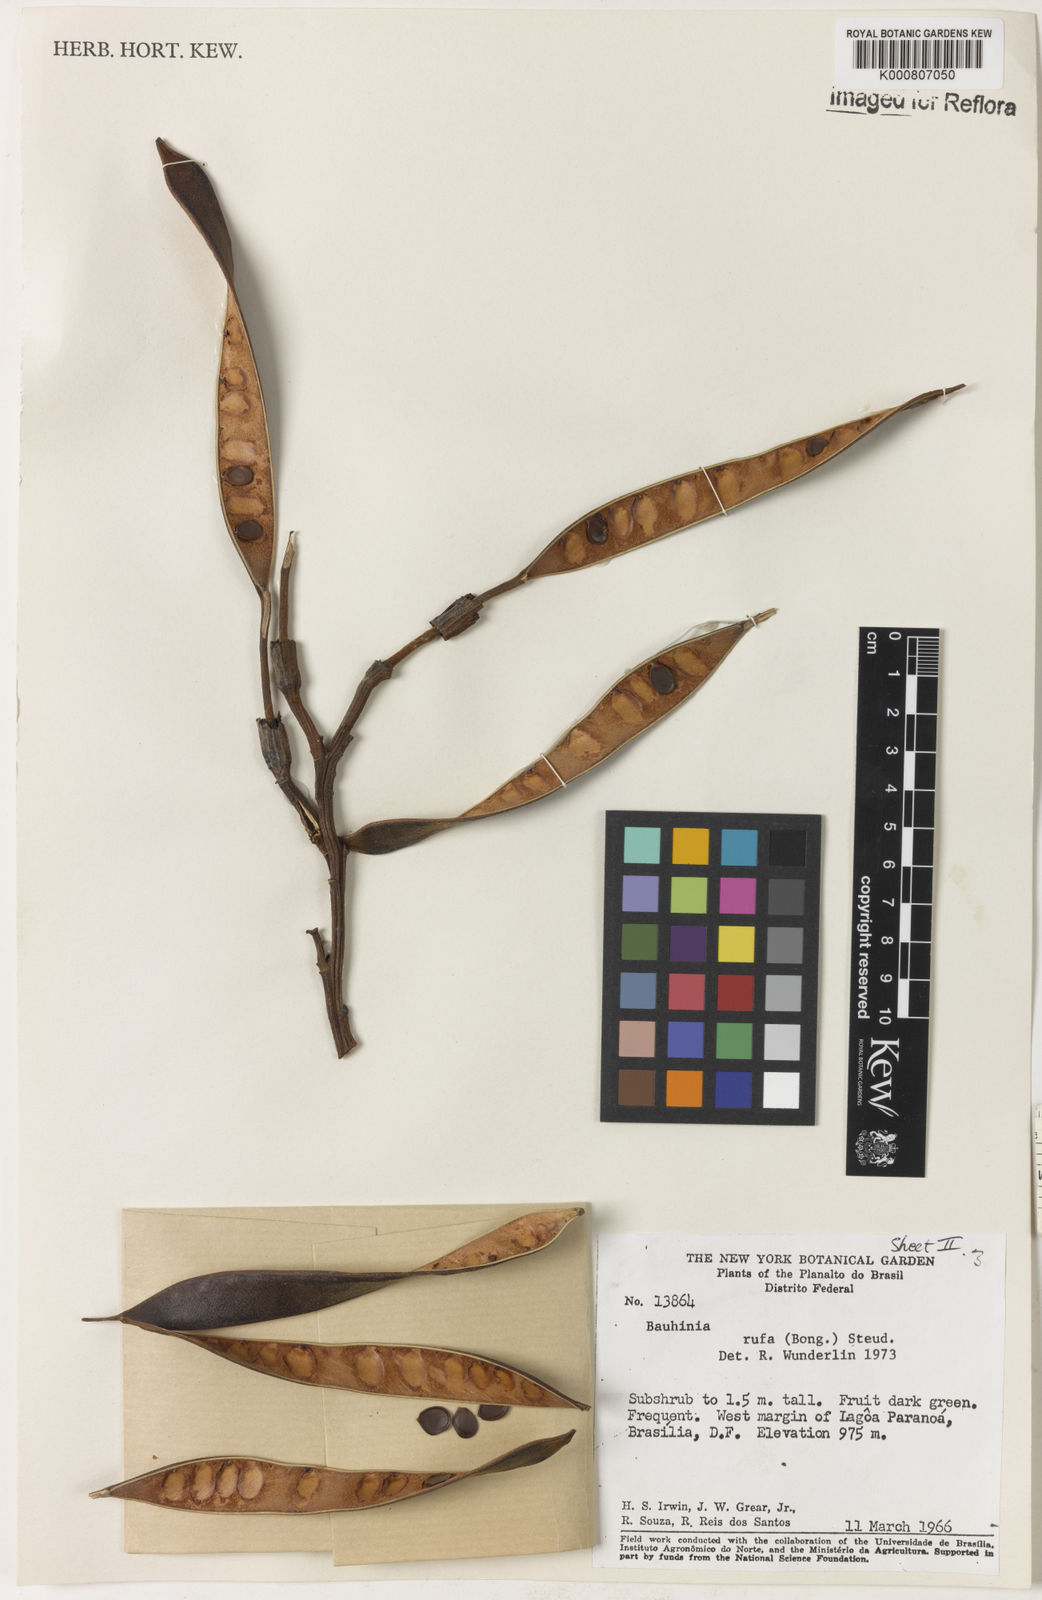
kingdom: Plantae
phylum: Tracheophyta
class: Magnoliopsida
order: Fabales
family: Fabaceae
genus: Bauhinia
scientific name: Bauhinia rufa
